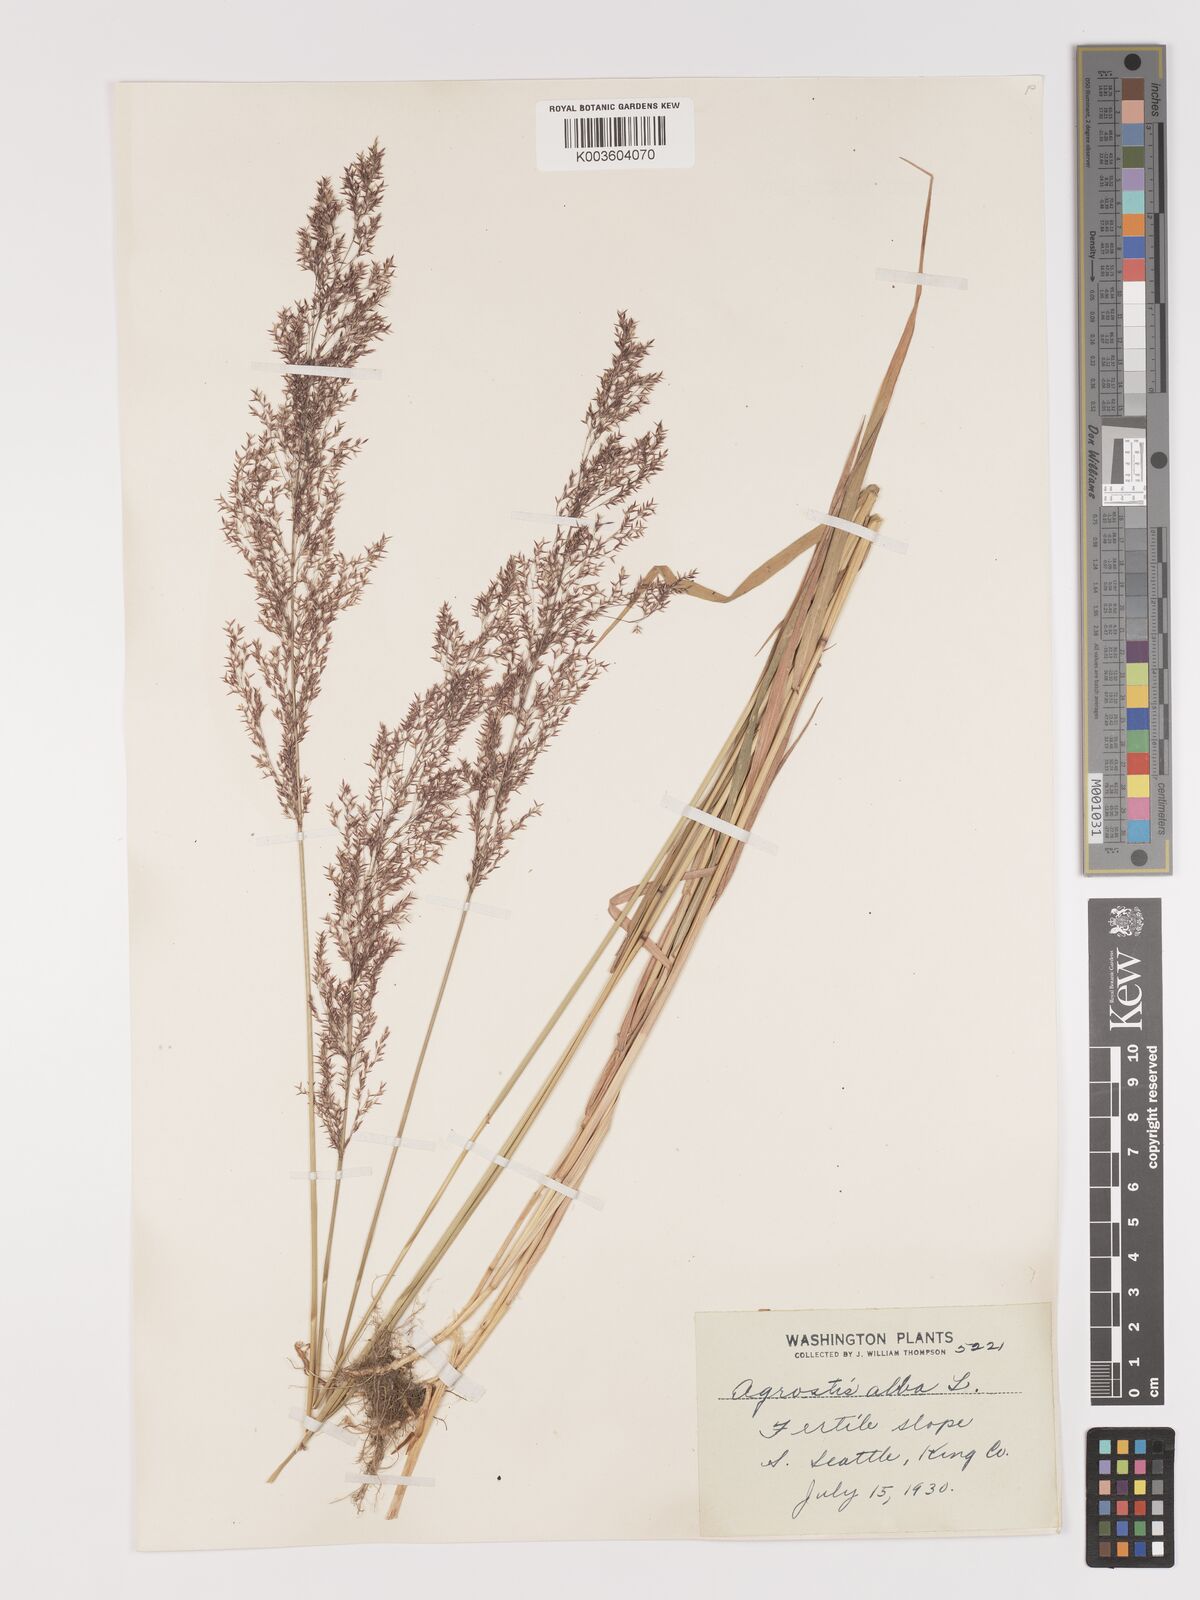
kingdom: Plantae
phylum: Tracheophyta
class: Liliopsida
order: Poales
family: Poaceae
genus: Agrostis
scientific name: Agrostis gigantea
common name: Black bent
